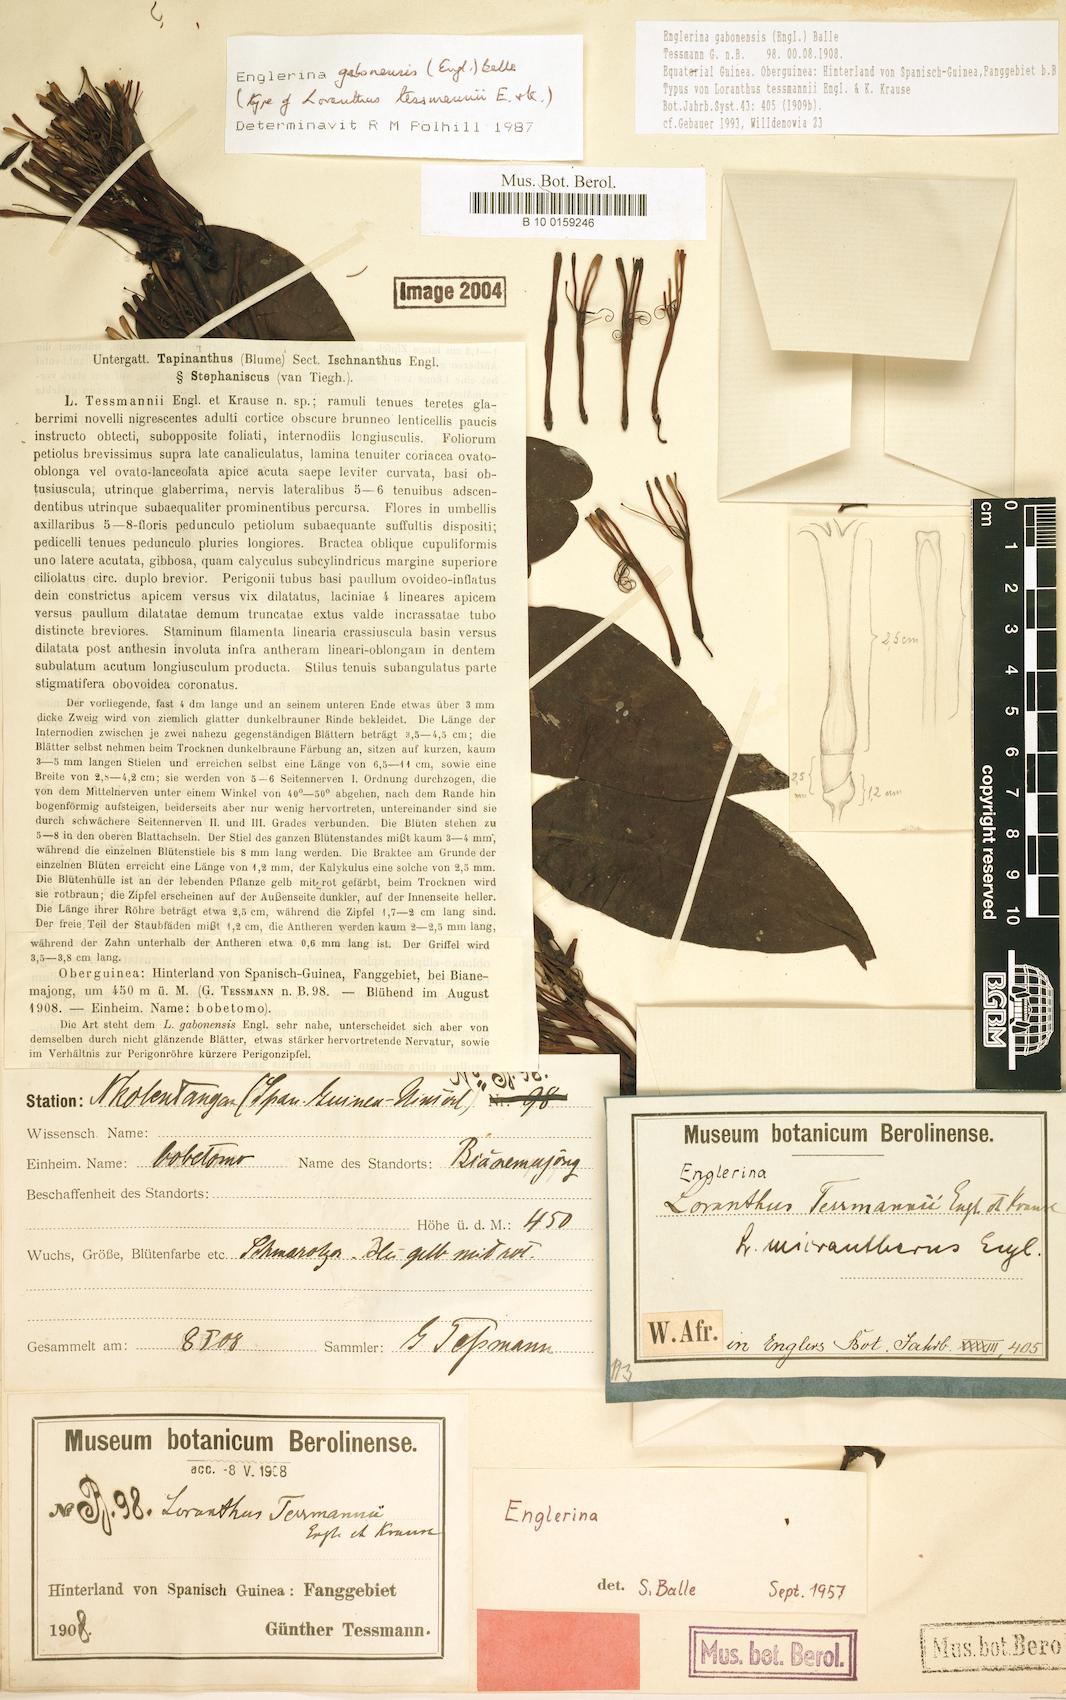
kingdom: Plantae
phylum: Tracheophyta
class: Magnoliopsida
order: Santalales
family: Loranthaceae
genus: Englerina
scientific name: Englerina gabonensis
